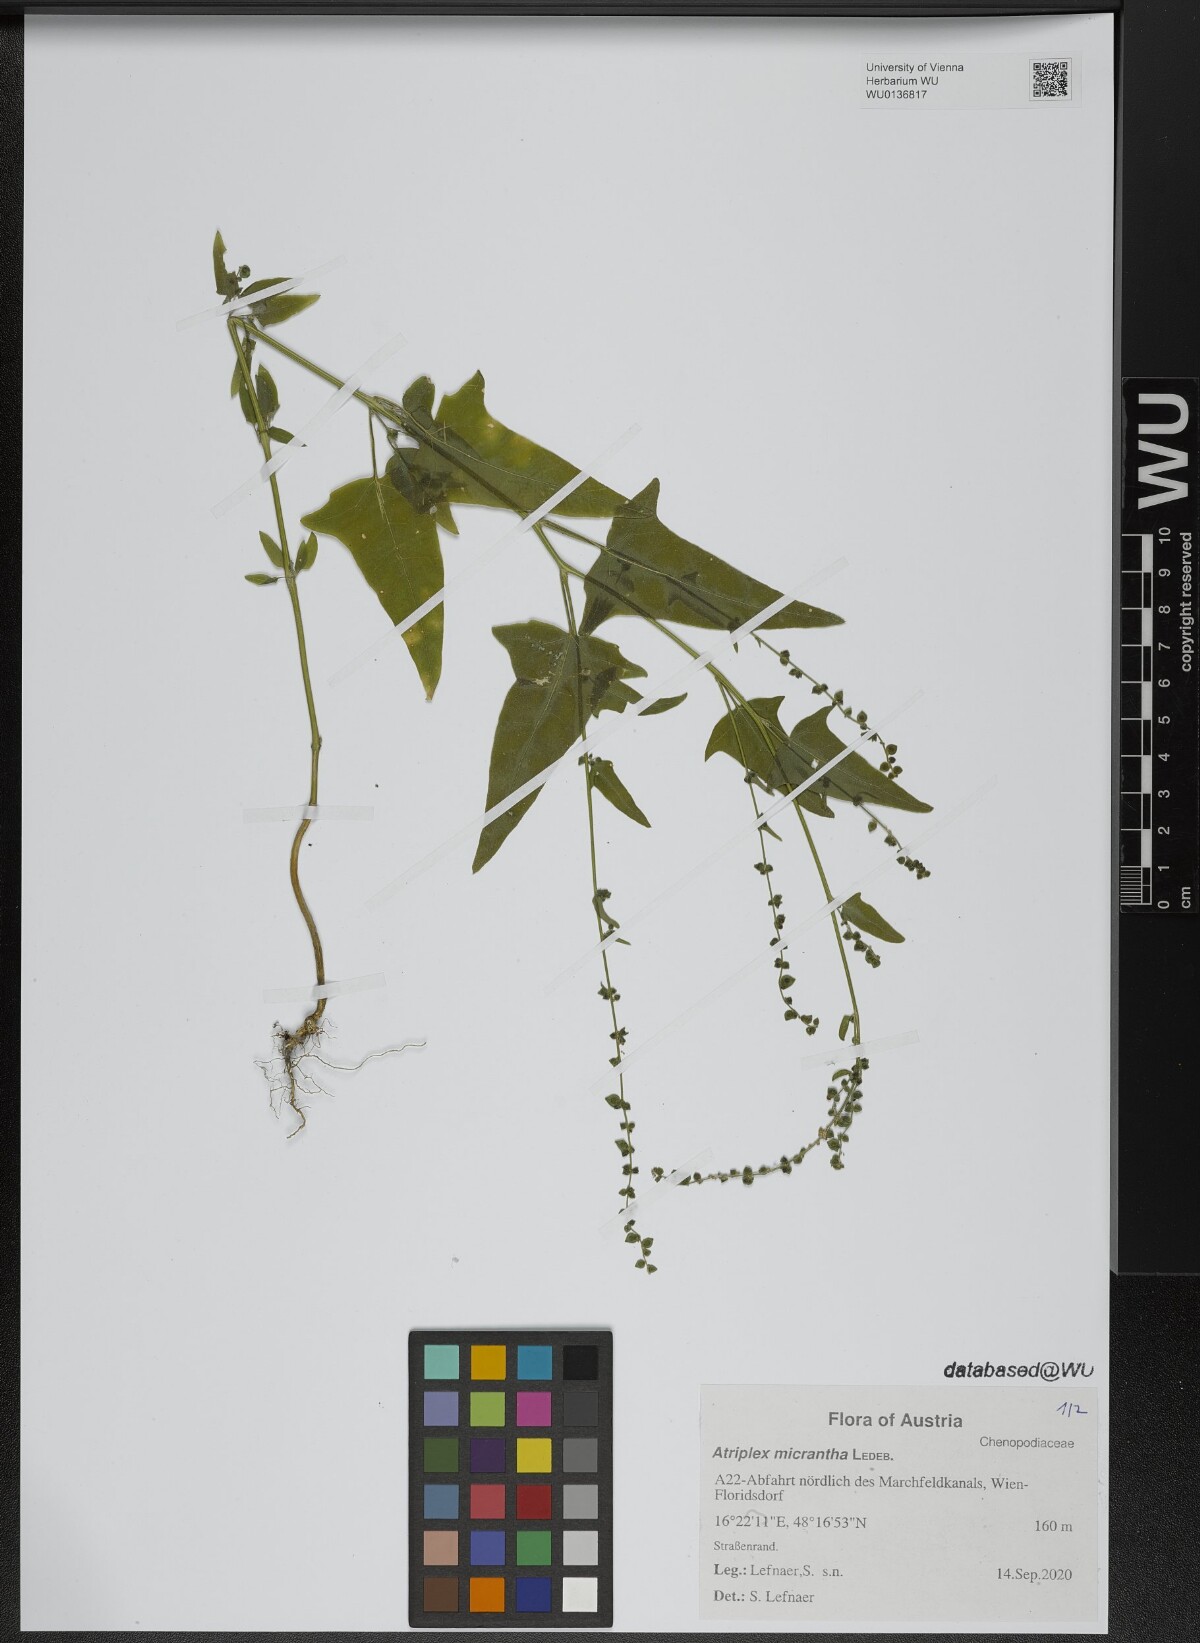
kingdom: Plantae
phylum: Tracheophyta
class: Magnoliopsida
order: Caryophyllales
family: Amaranthaceae
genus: Atriplex
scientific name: Atriplex micrantha
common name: Twoscale saltbush
